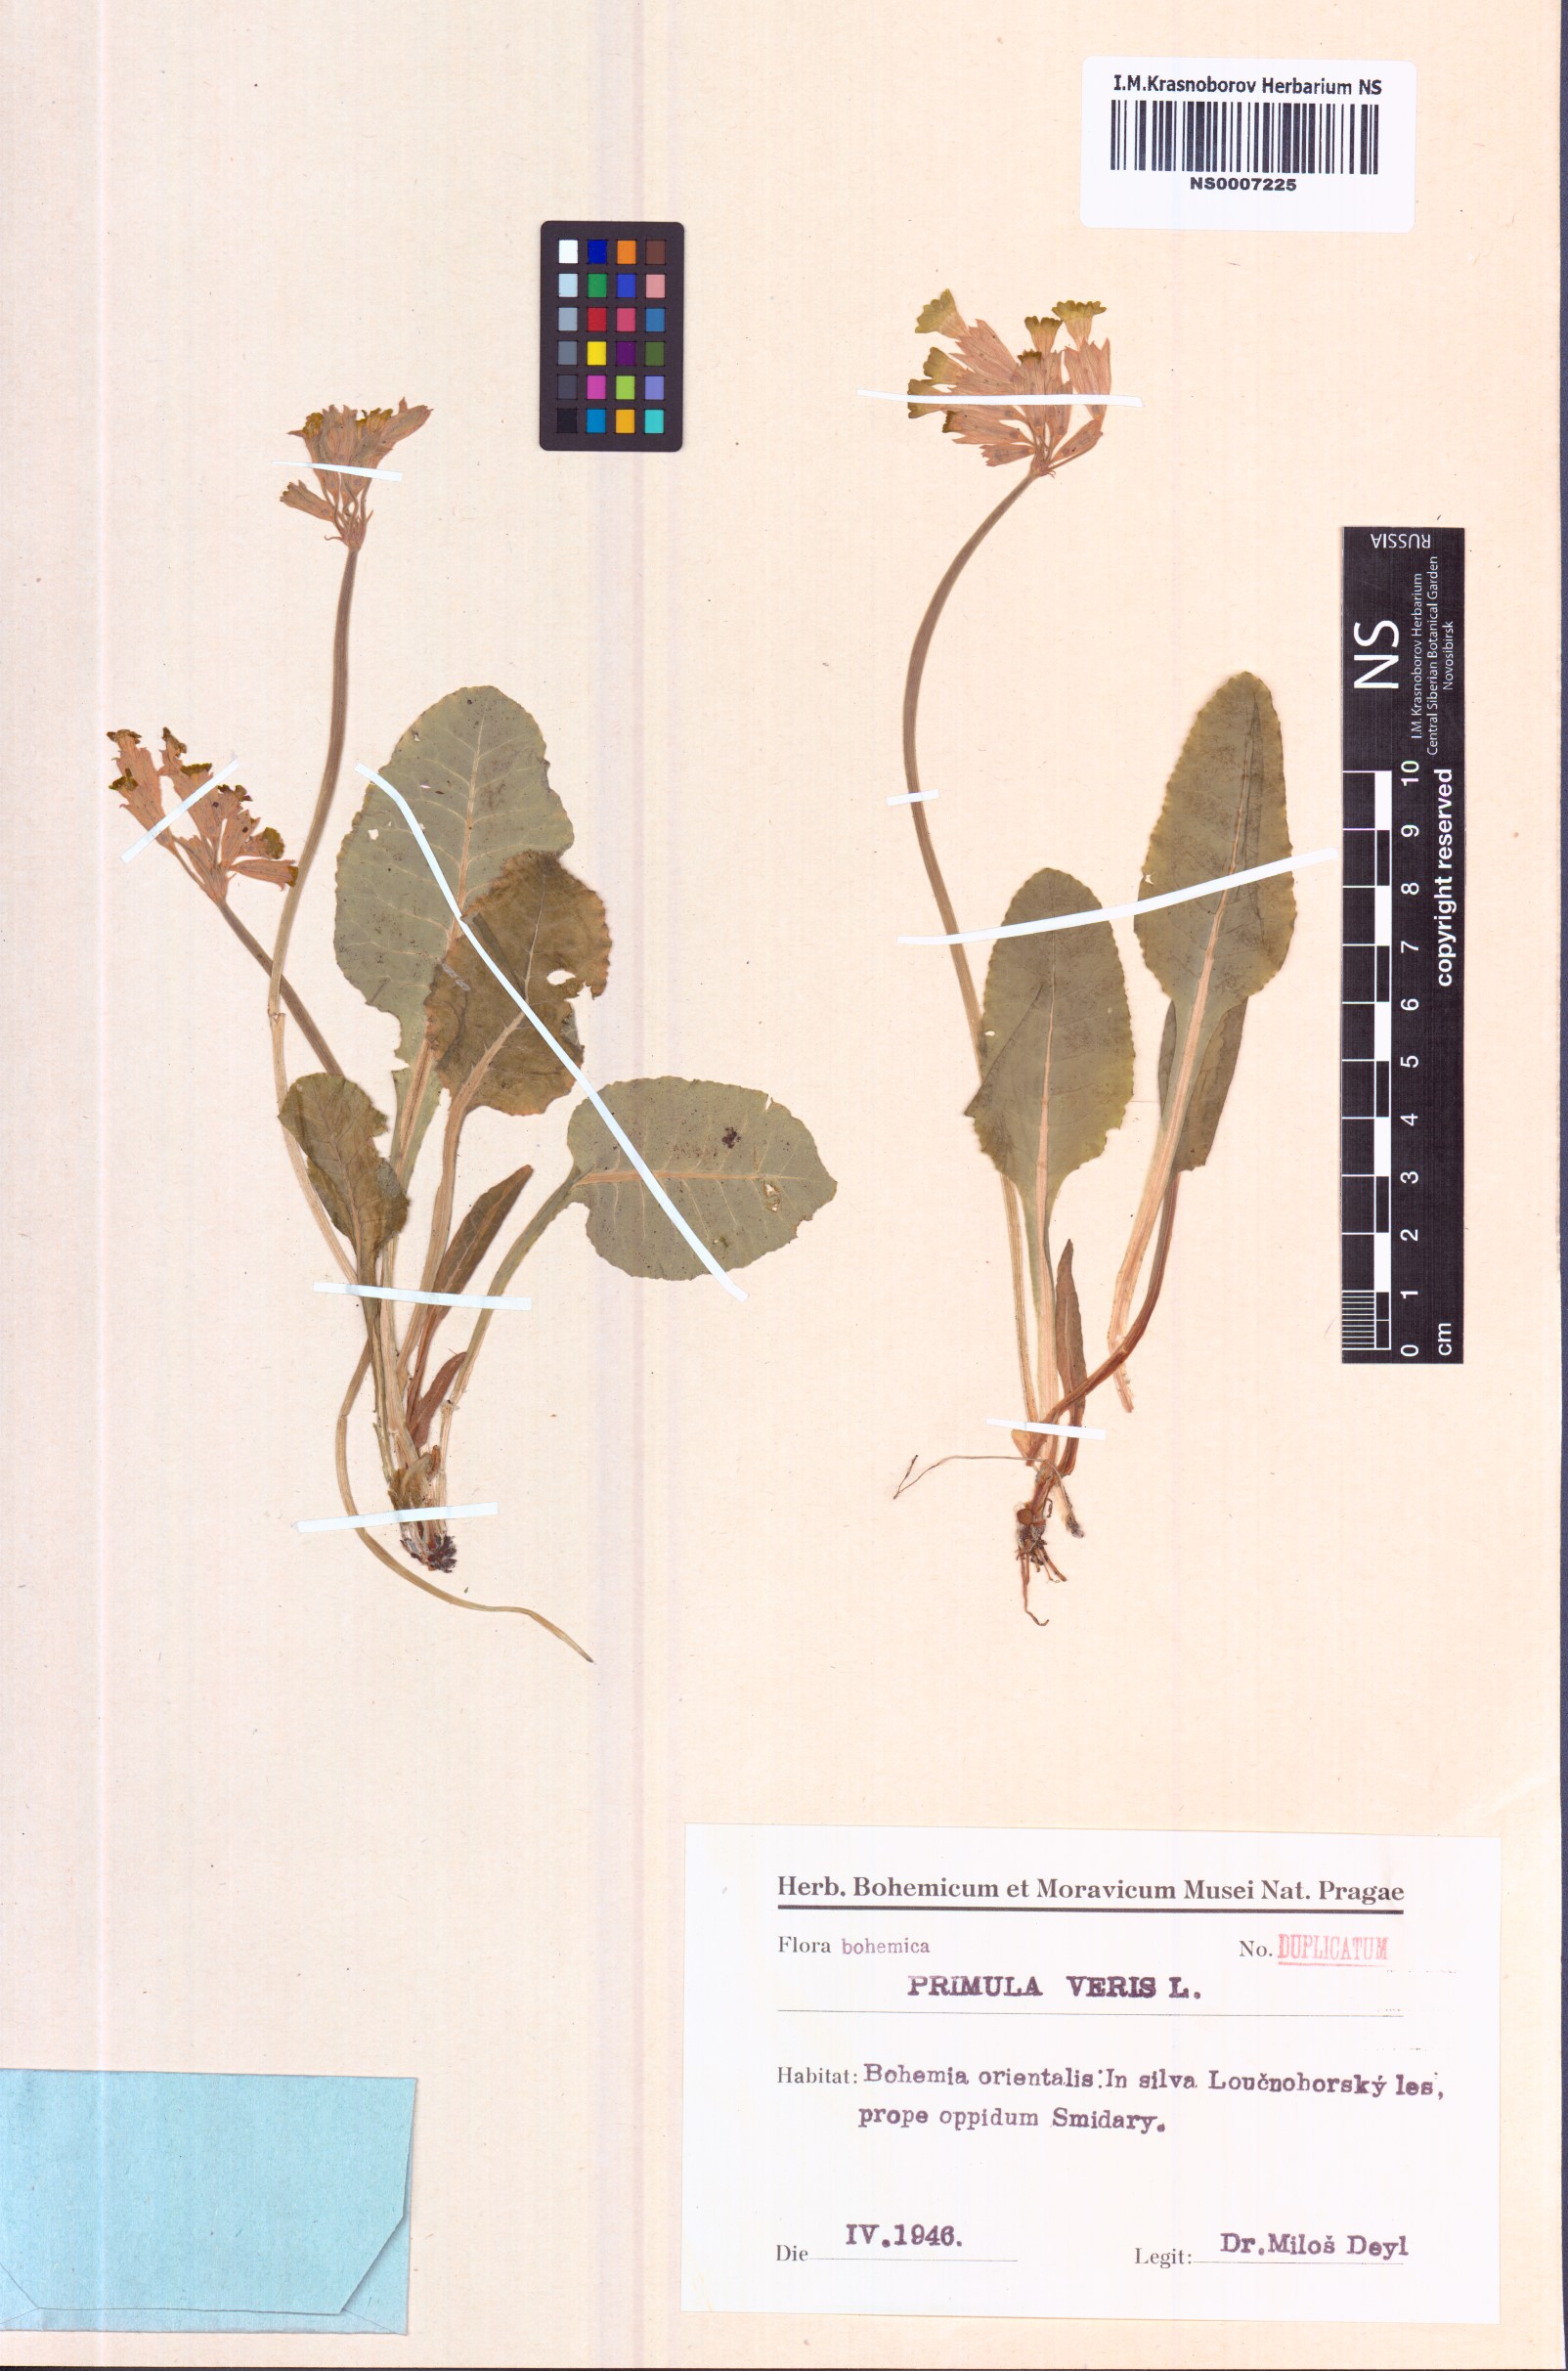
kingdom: Plantae
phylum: Tracheophyta
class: Magnoliopsida
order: Ericales
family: Primulaceae
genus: Primula
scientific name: Primula veris
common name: Cowslip
